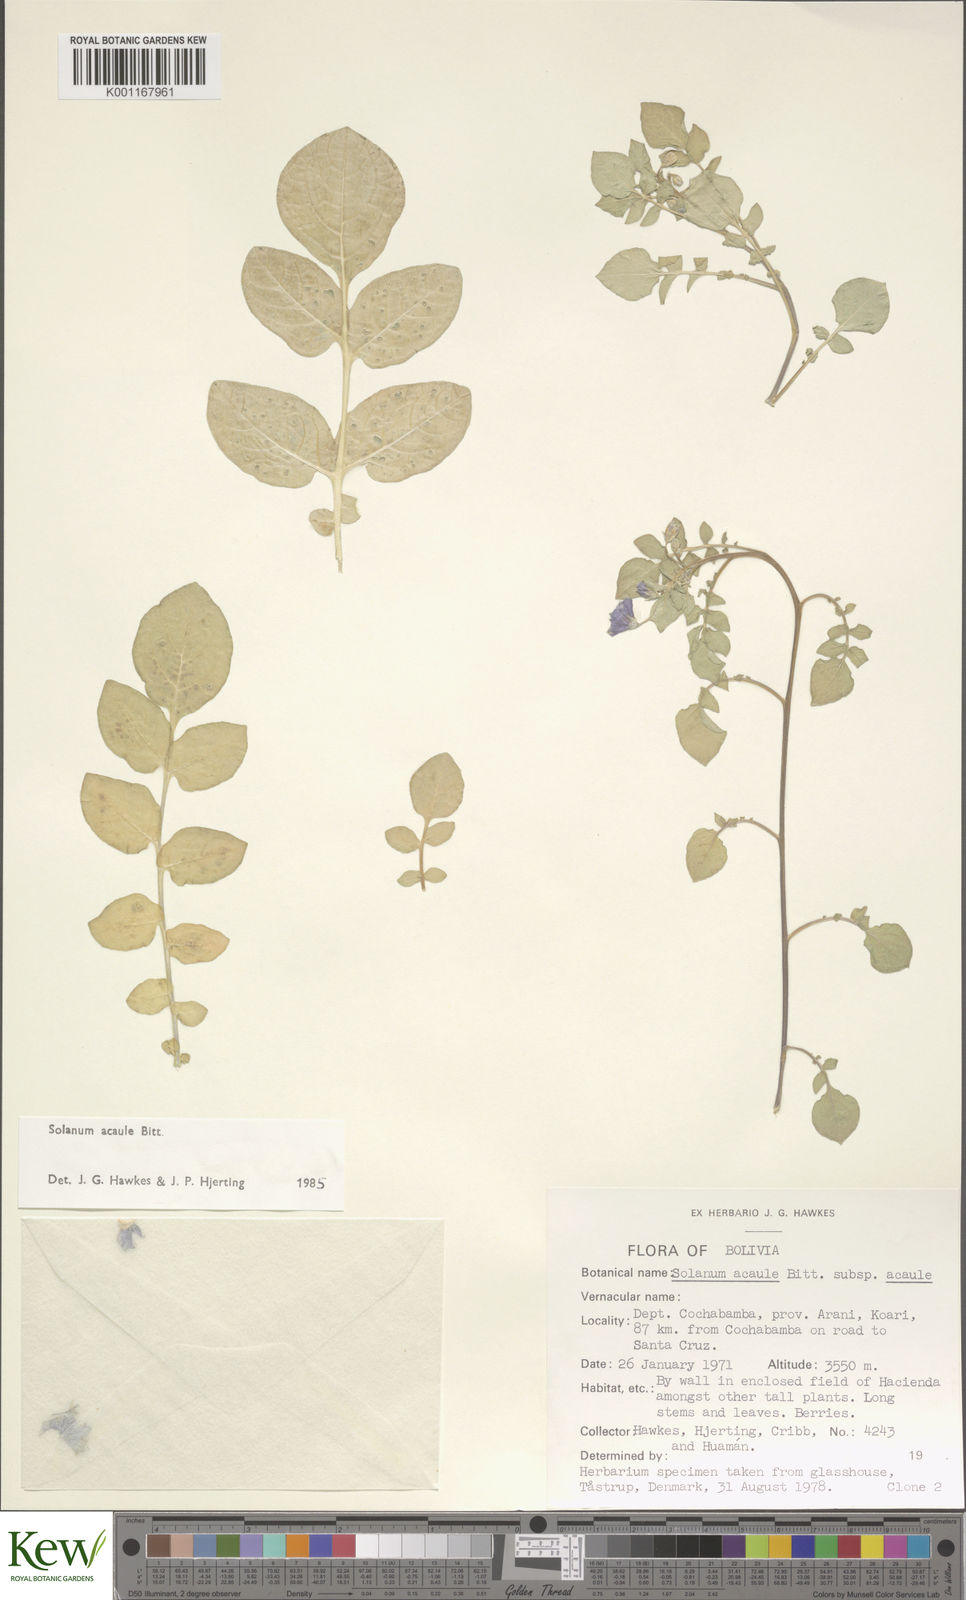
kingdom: Plantae
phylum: Tracheophyta
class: Magnoliopsida
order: Solanales
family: Solanaceae
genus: Solanum
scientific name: Solanum acaule
